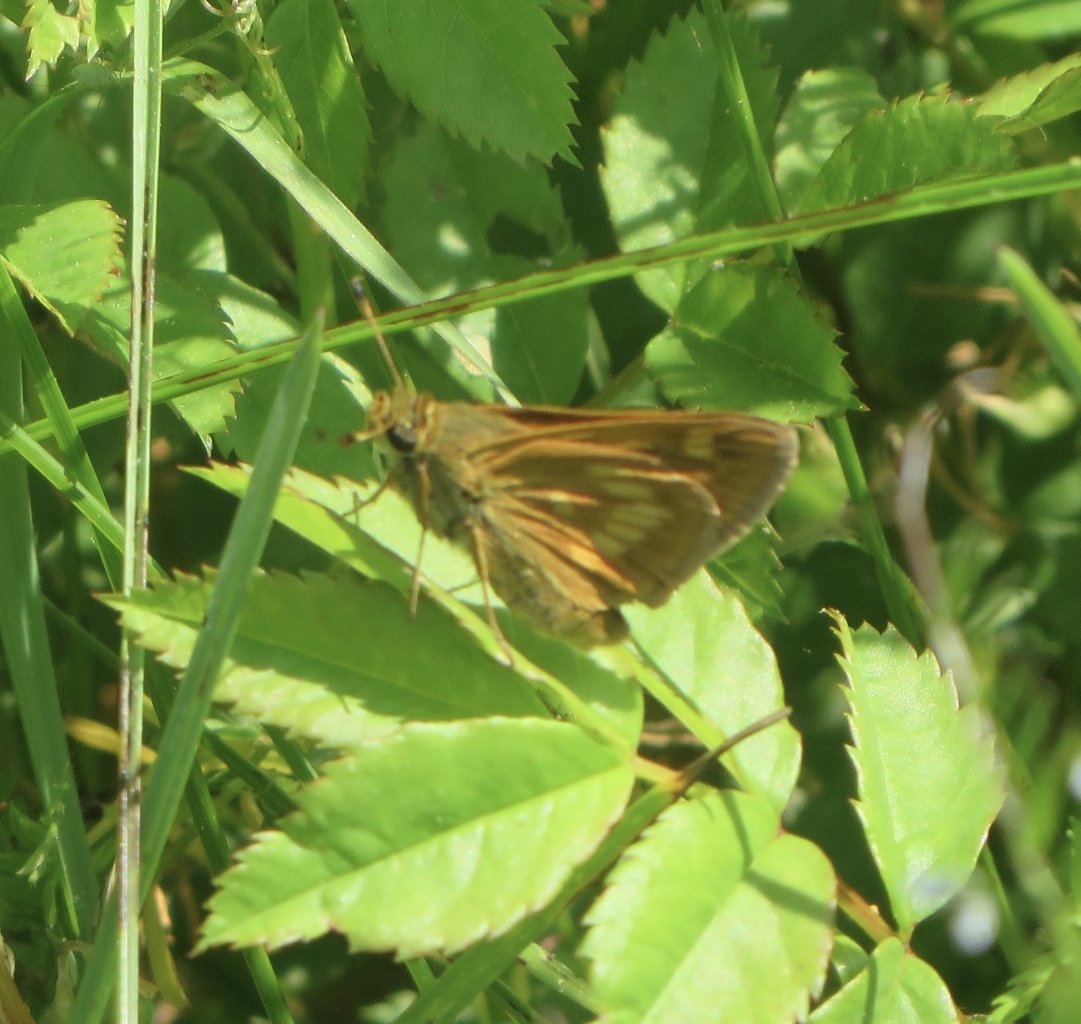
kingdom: Animalia
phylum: Arthropoda
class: Insecta
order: Lepidoptera
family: Hesperiidae
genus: Polites
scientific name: Polites
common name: Long Dash Skipper
